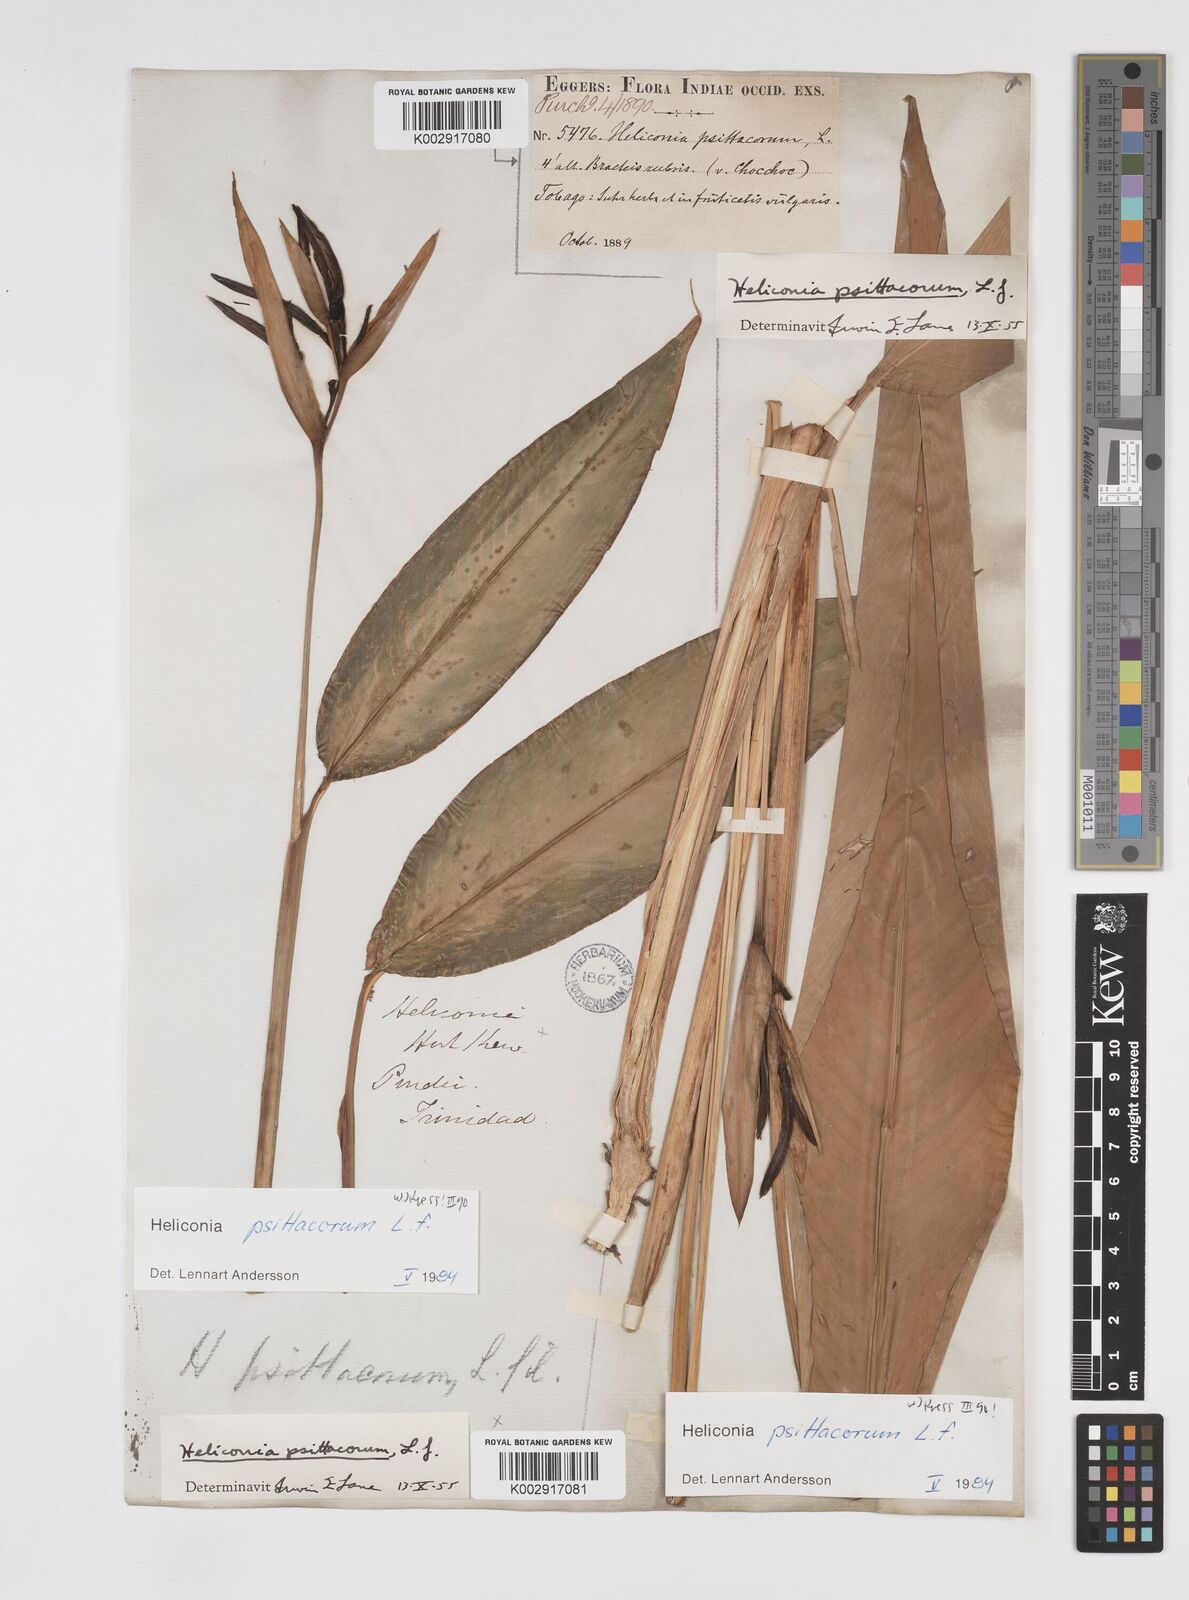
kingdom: Plantae
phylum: Tracheophyta
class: Liliopsida
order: Zingiberales
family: Heliconiaceae
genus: Heliconia
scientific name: Heliconia psittacorum
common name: Parrot's-flower
